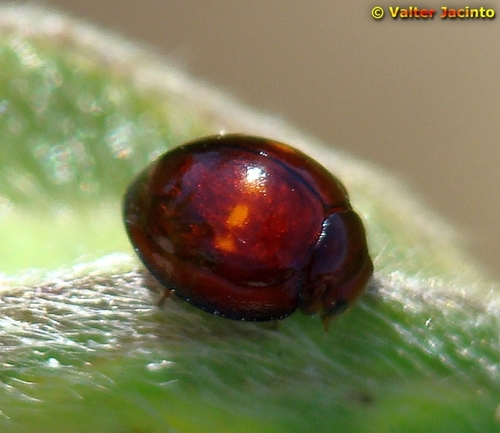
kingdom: Animalia
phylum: Arthropoda
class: Insecta
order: Coleoptera
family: Coccinellidae
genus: Chilocorus
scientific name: Chilocorus bipustulatus
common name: Heather ladybird
